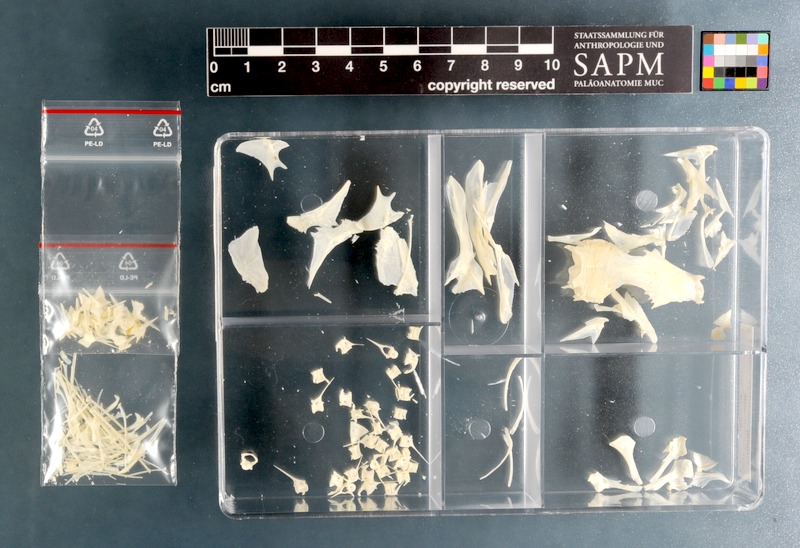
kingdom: Animalia
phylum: Chordata
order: Scorpaeniformes
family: Triglidae
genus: Chelidonichthys
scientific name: Chelidonichthys capensis
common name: Cape gurnard
